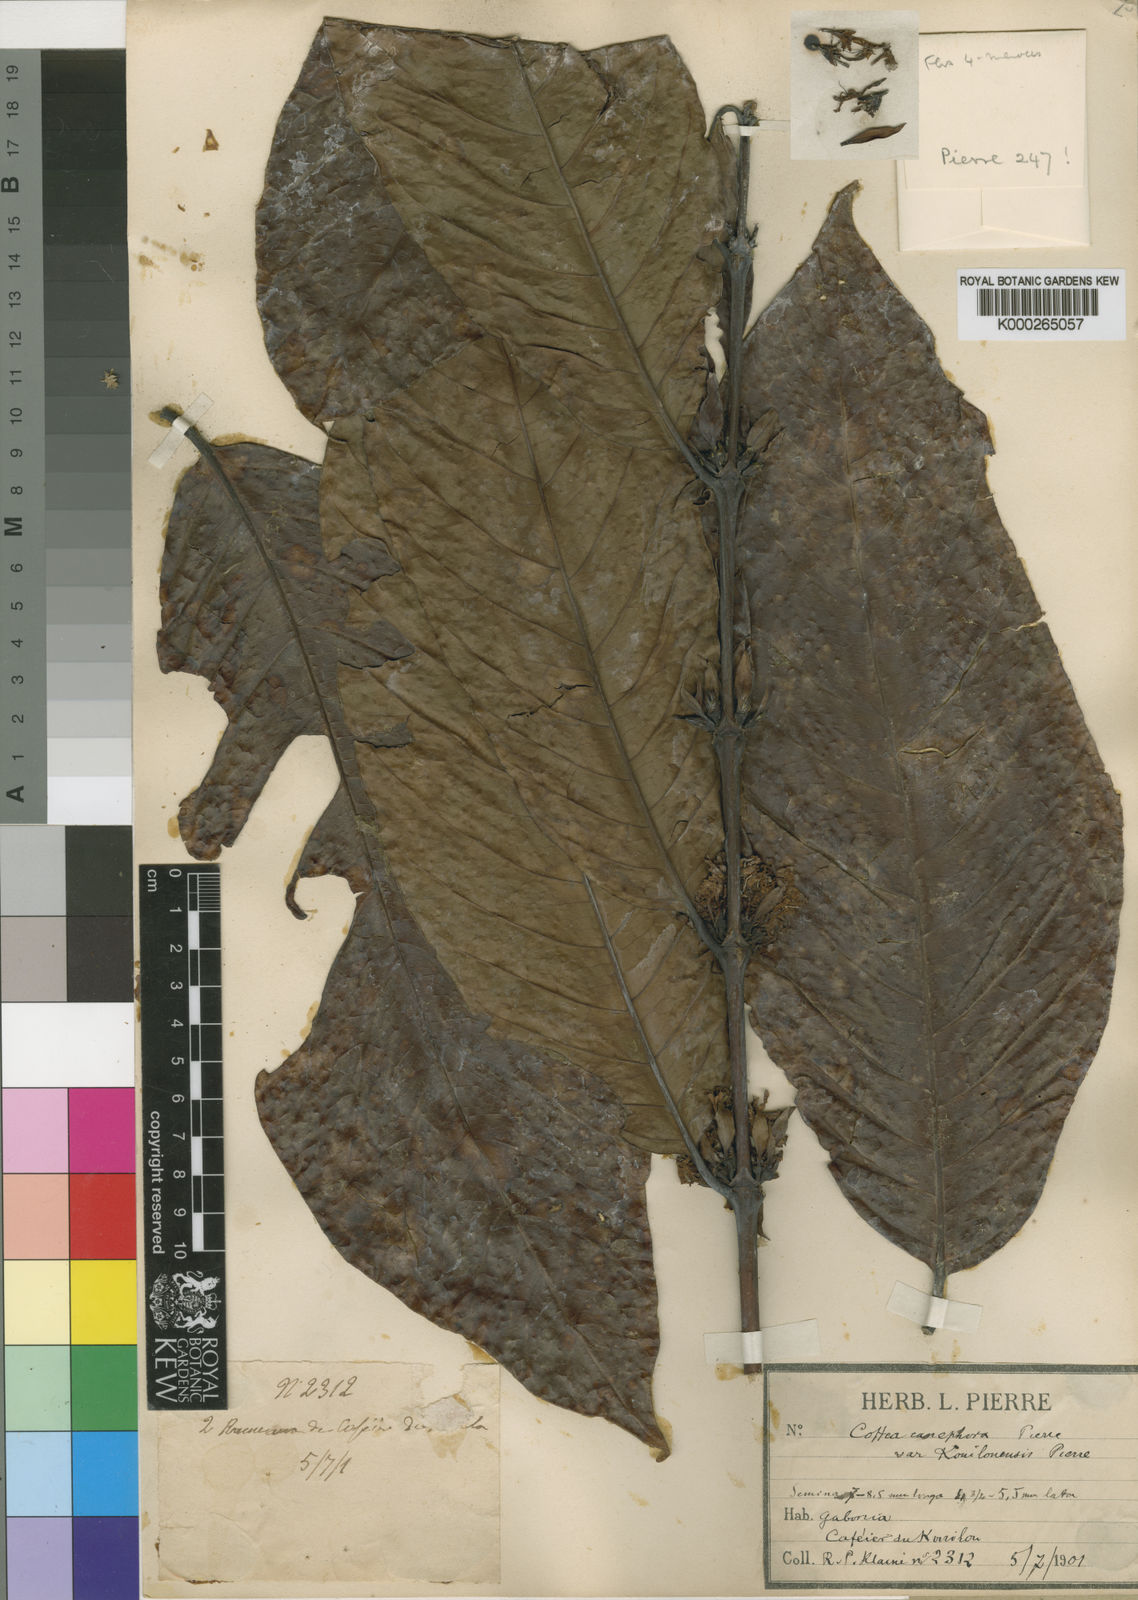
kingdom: Plantae
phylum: Tracheophyta
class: Magnoliopsida
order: Gentianales
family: Rubiaceae
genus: Coffea
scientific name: Coffea canephora
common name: Robusta coffee
